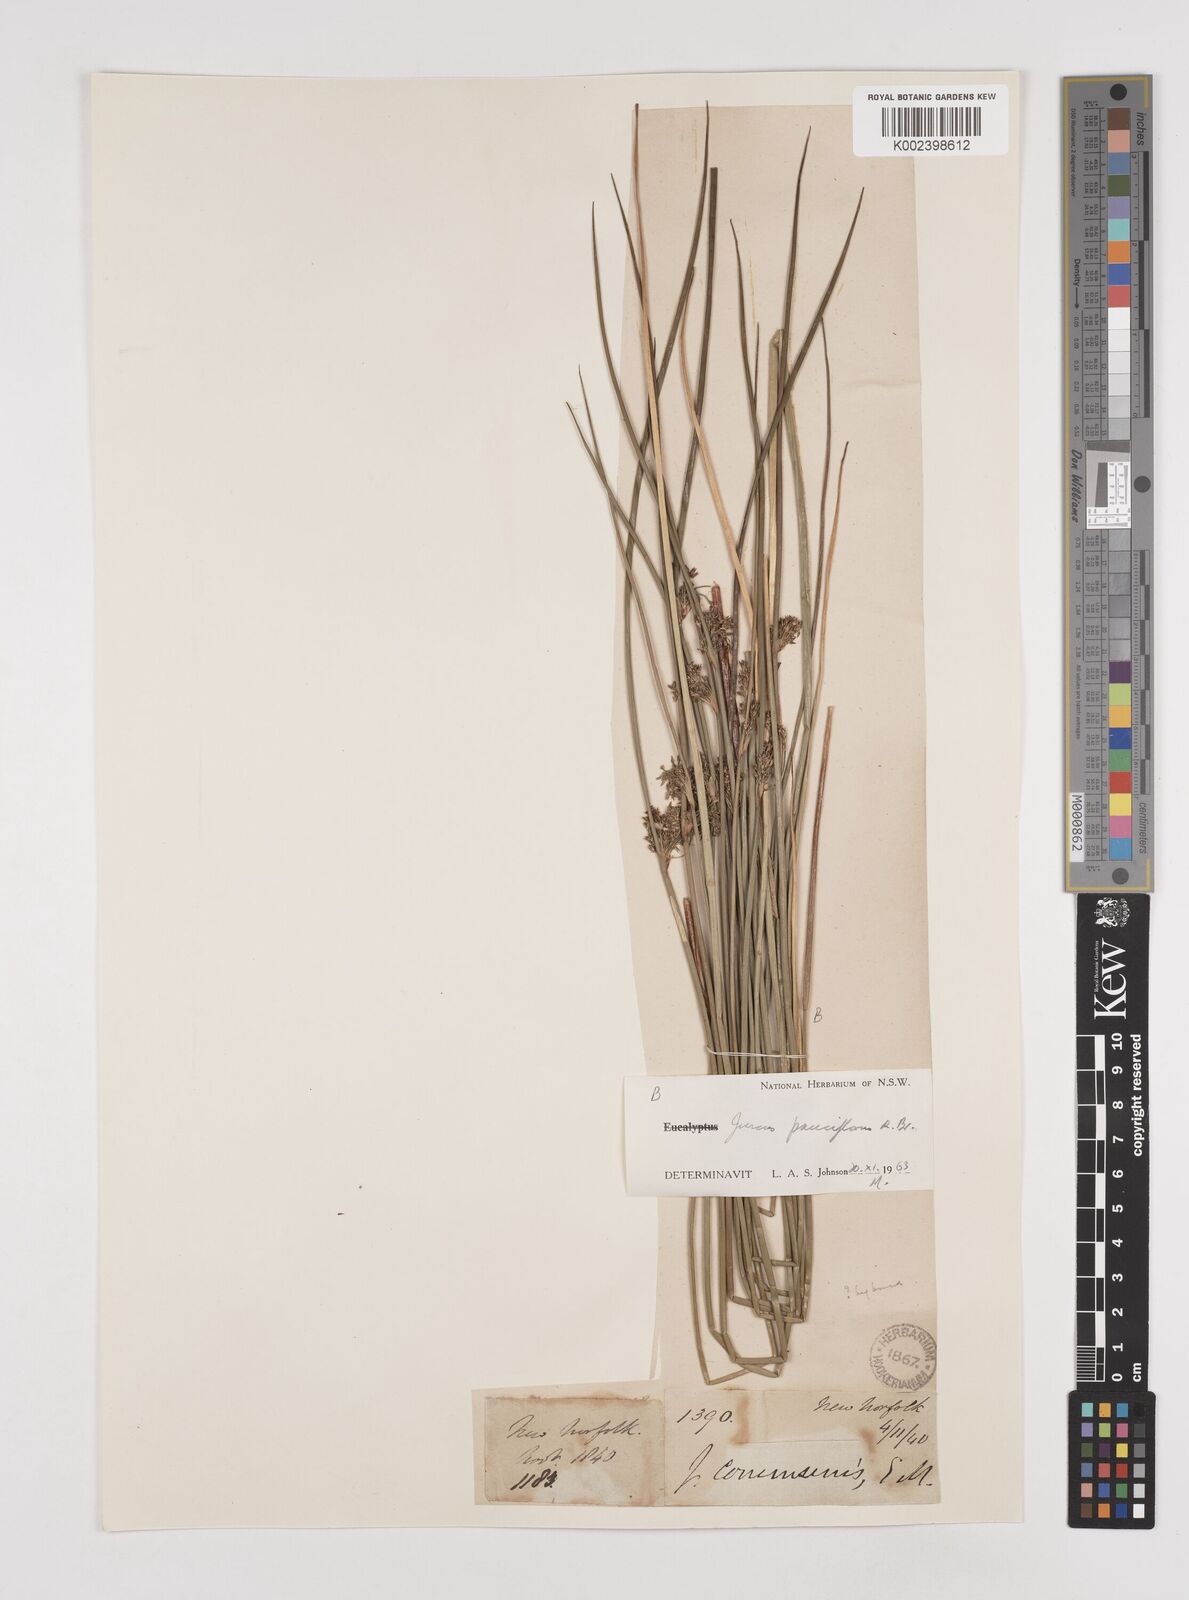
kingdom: Plantae
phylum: Tracheophyta
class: Liliopsida
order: Poales
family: Juncaceae
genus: Juncus
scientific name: Juncus pauciflorus
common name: Loose-flowered rush
